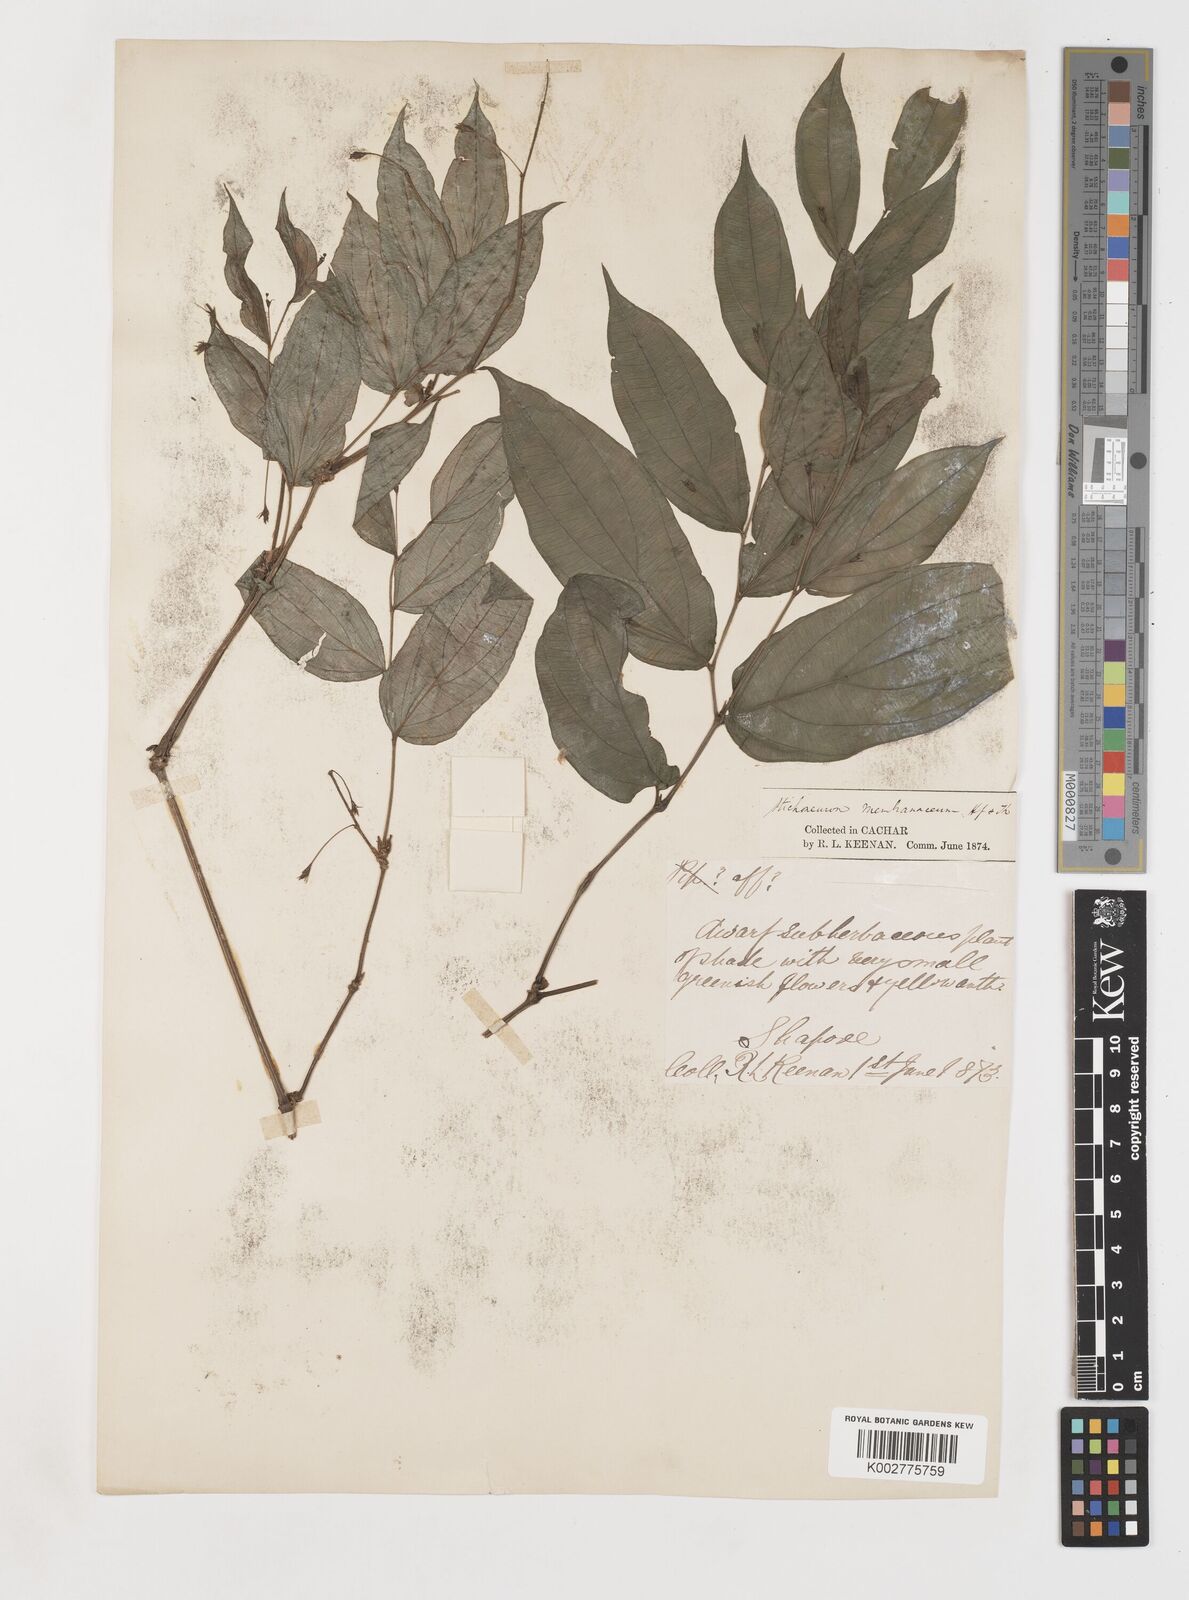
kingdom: Plantae
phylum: Tracheophyta
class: Liliopsida
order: Pandanales
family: Stemonaceae
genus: Stichoneuron
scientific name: Stichoneuron membranaceum
